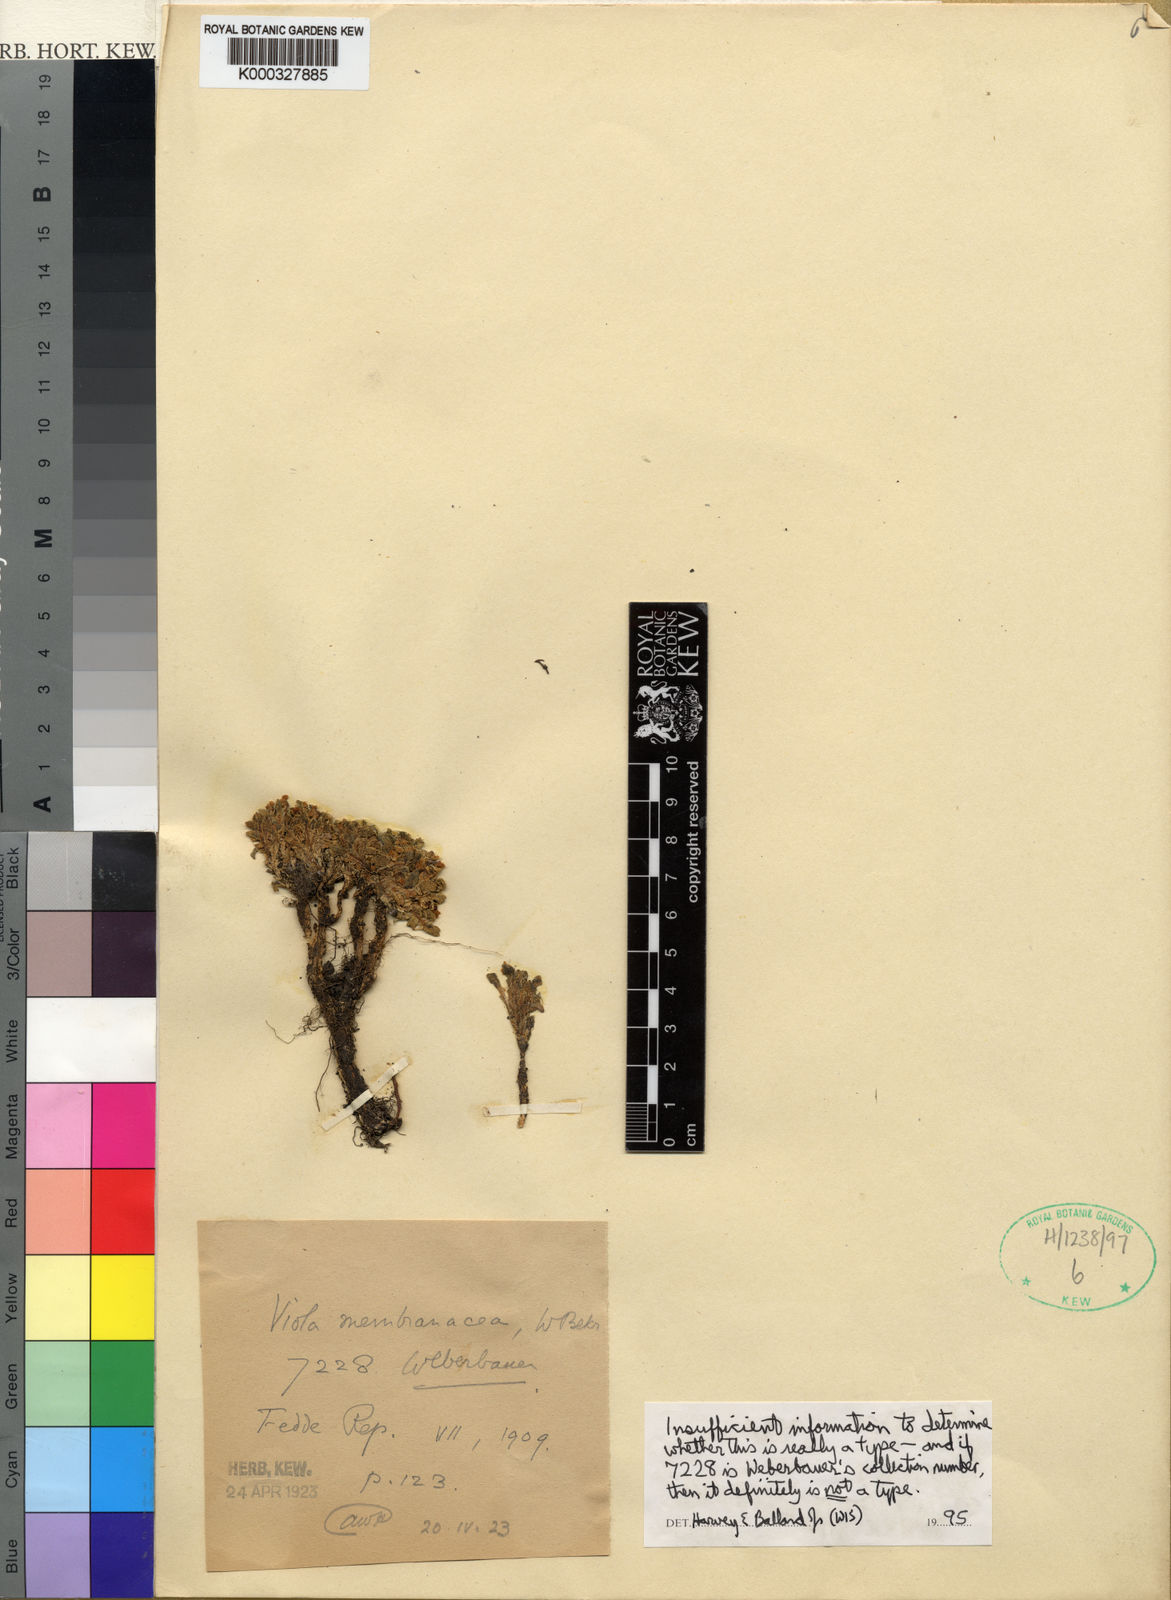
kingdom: Plantae
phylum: Tracheophyta
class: Magnoliopsida
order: Malpighiales
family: Violaceae
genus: Viola
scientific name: Viola membranacea
